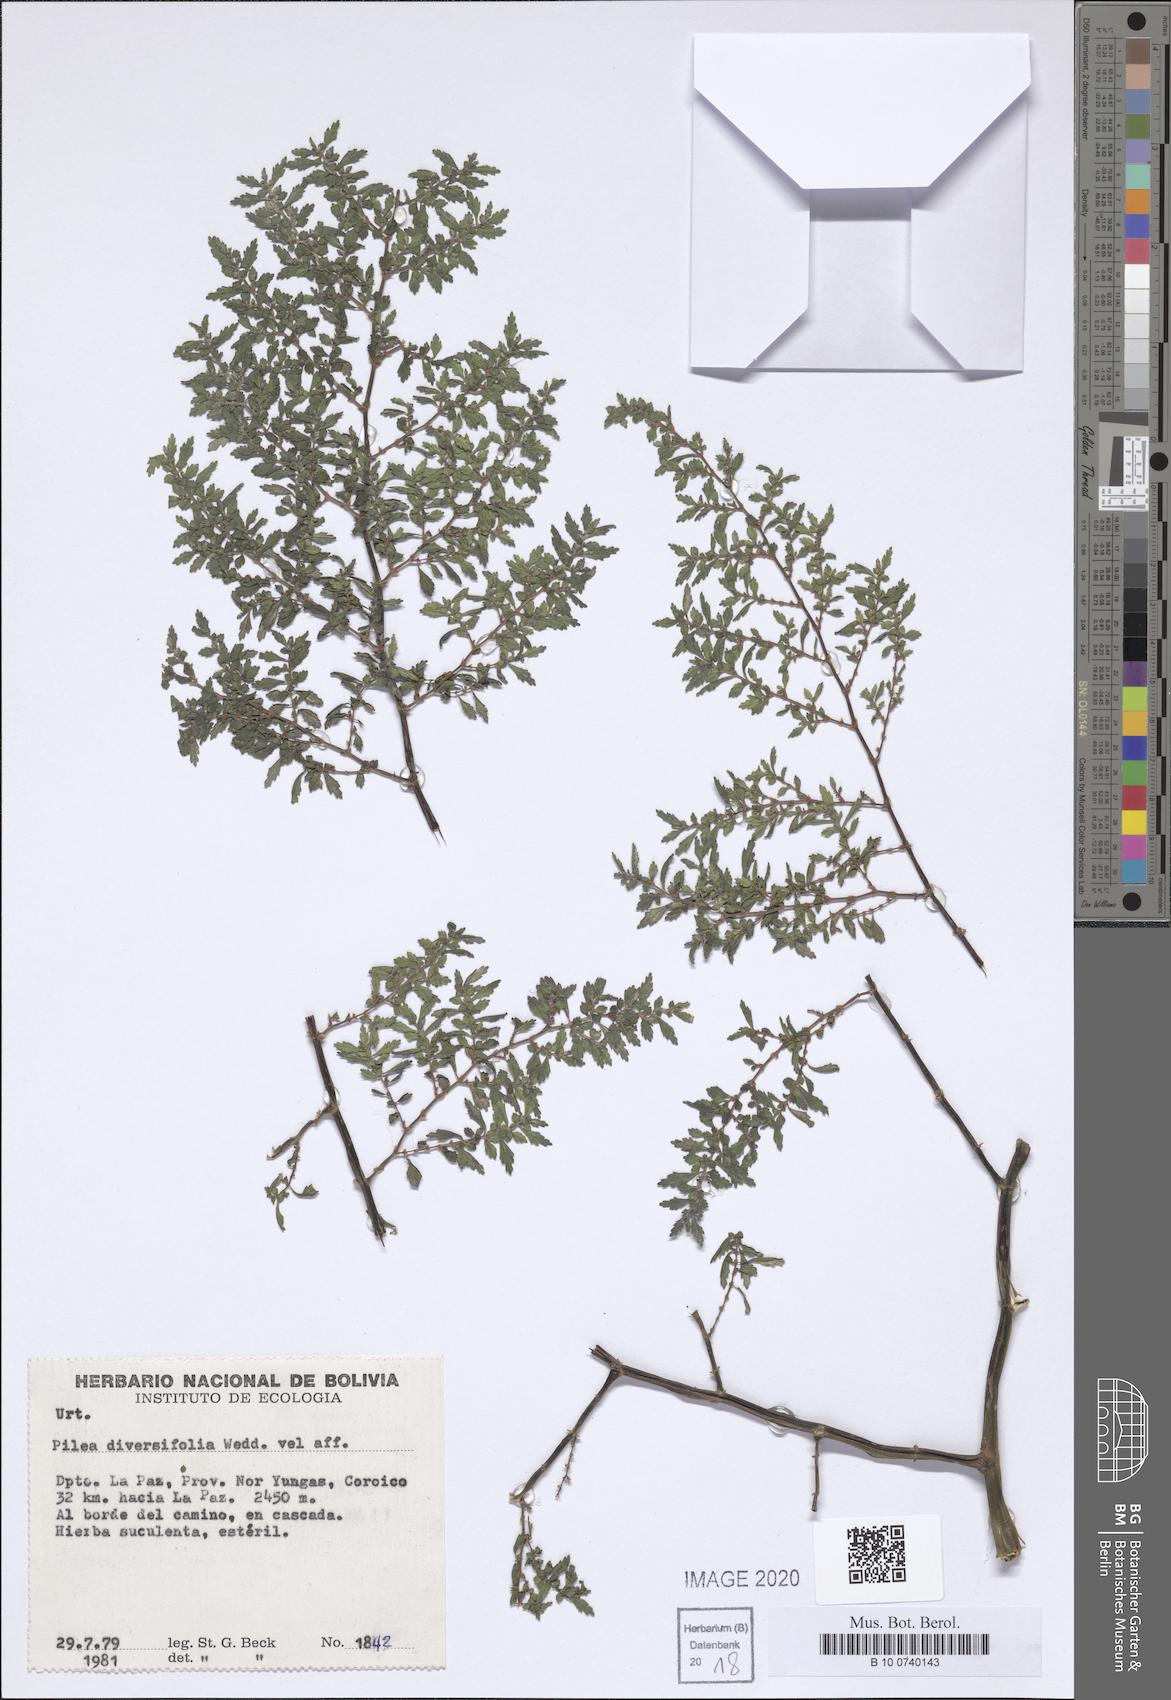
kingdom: Plantae
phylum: Tracheophyta
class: Magnoliopsida
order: Rosales
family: Urticaceae
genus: Pilea
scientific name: Pilea diversifolia
